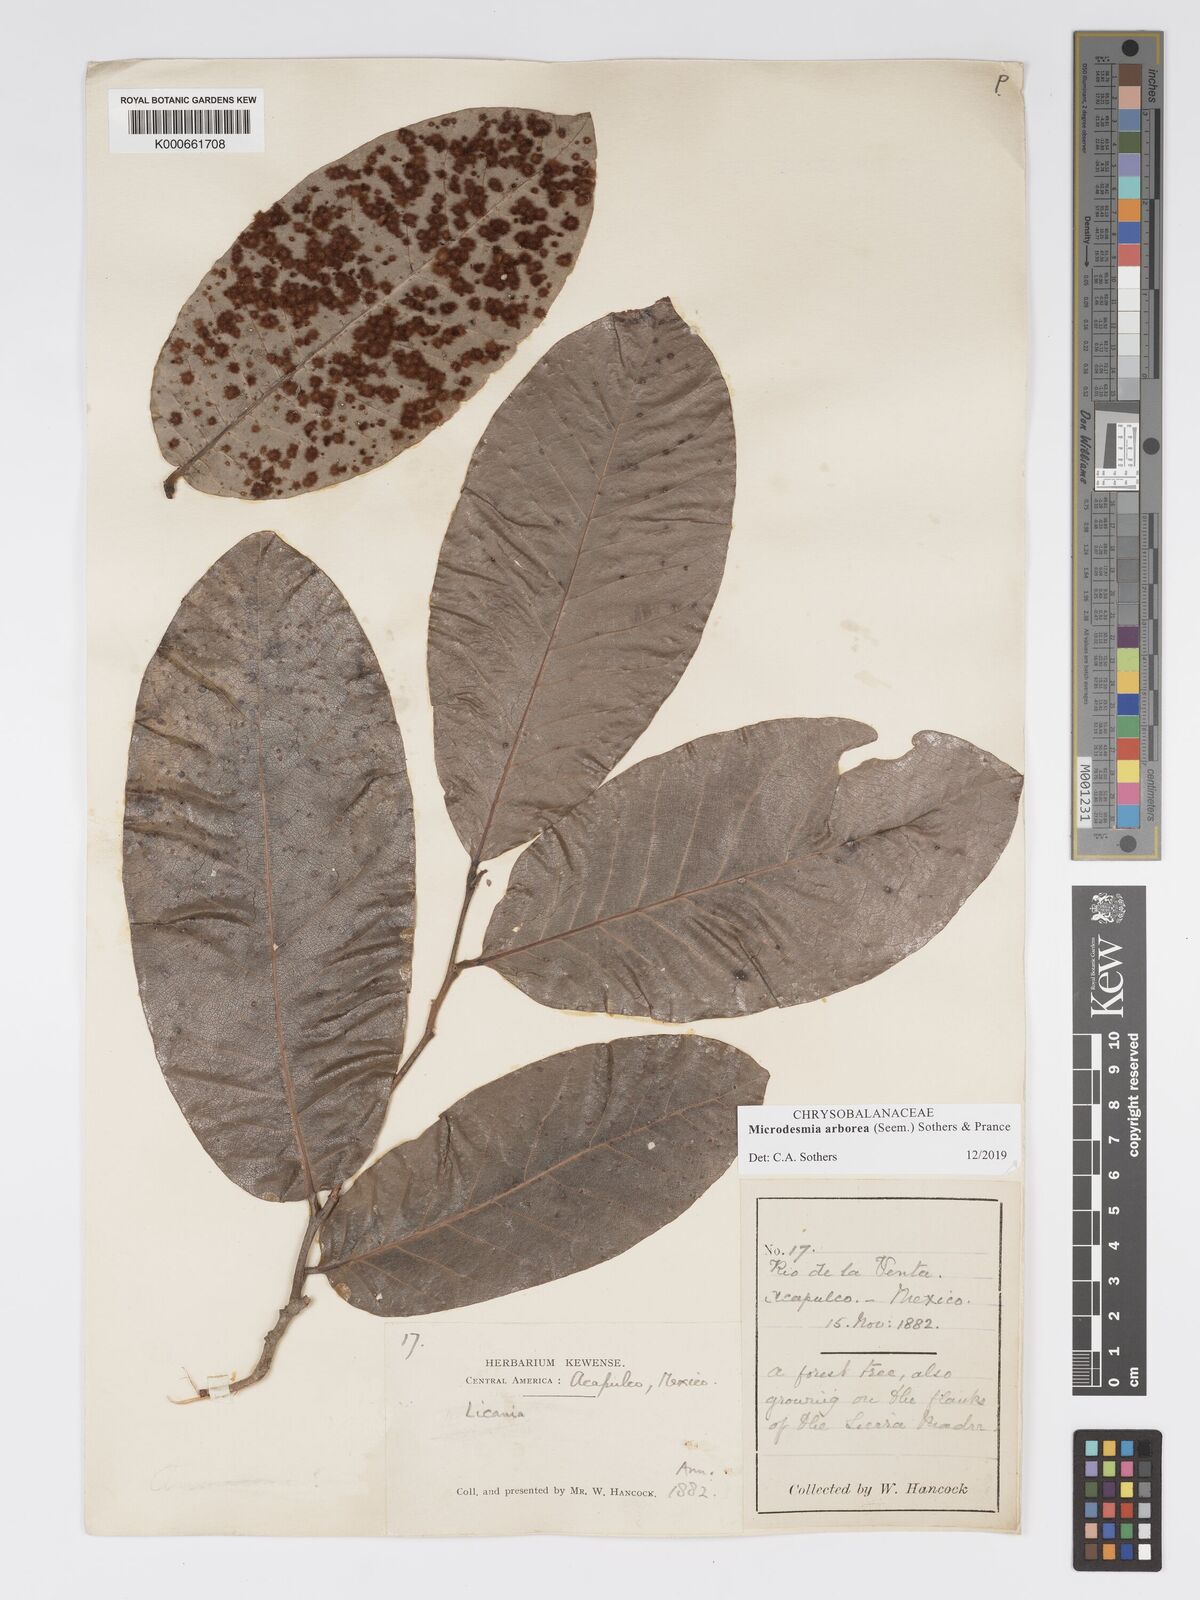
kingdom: Plantae
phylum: Tracheophyta
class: Magnoliopsida
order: Malpighiales
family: Chrysobalanaceae
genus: Licania
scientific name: Licania
